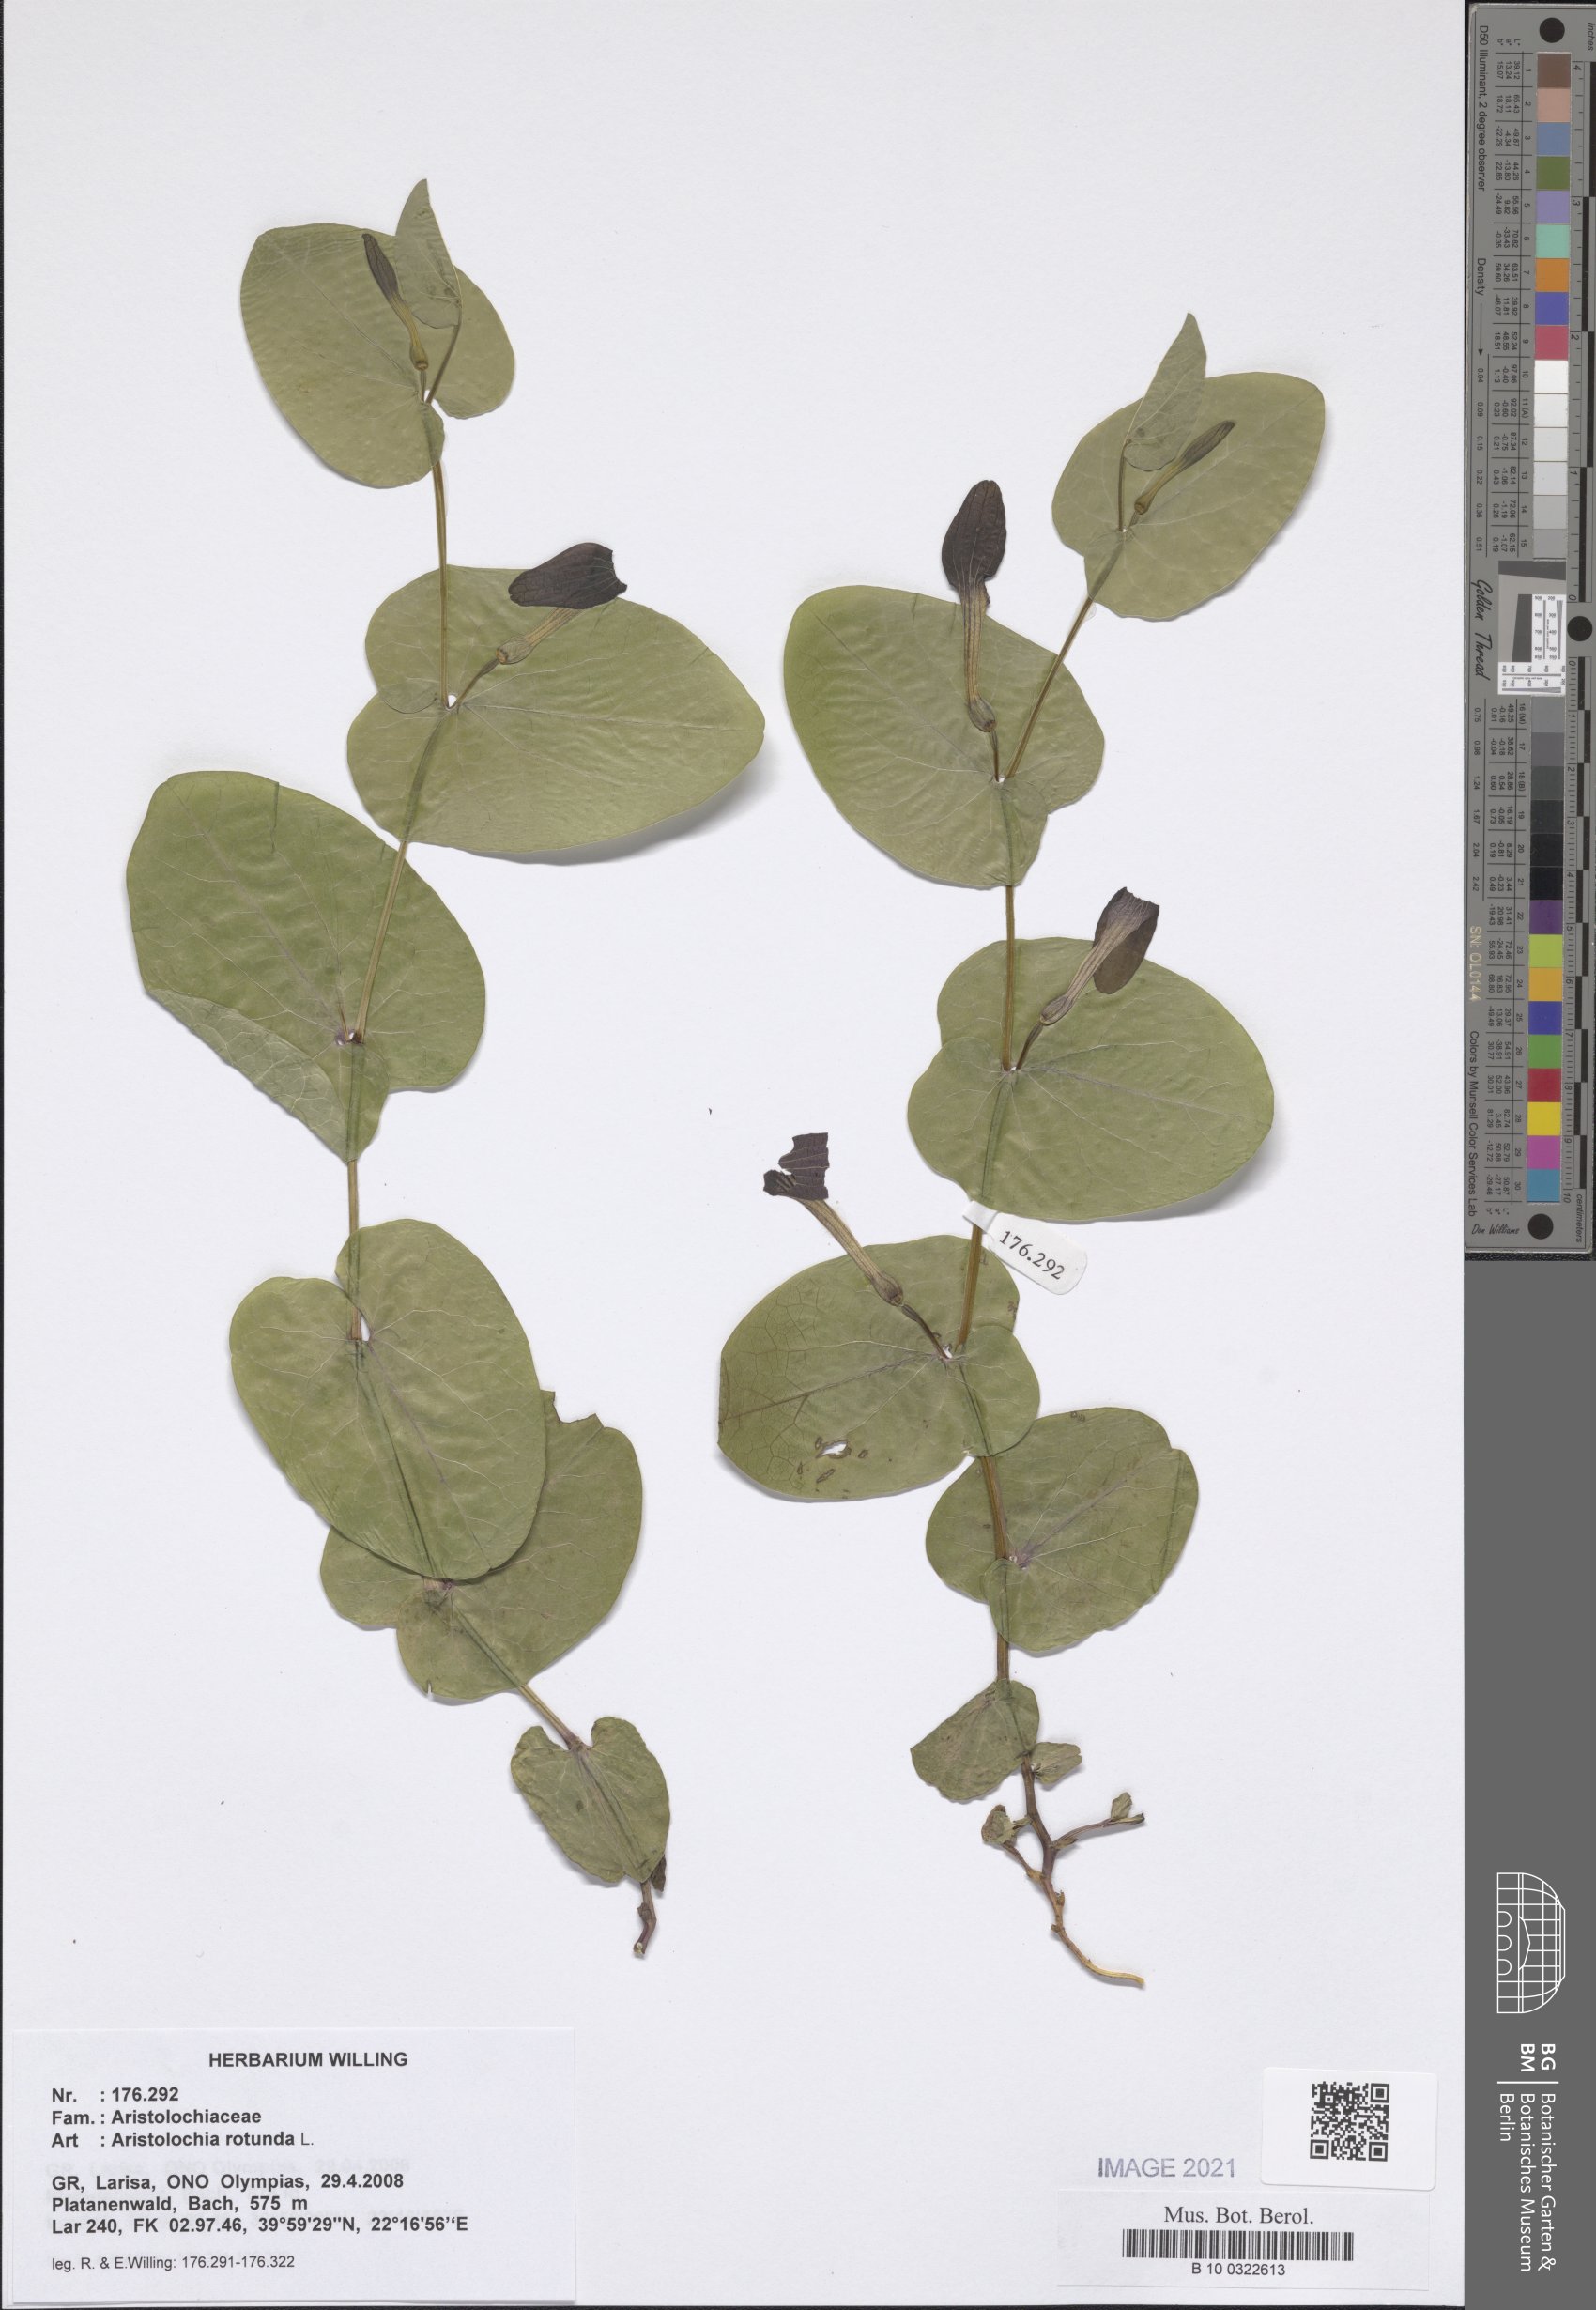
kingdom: Plantae
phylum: Tracheophyta
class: Magnoliopsida
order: Piperales
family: Aristolochiaceae
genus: Aristolochia
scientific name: Aristolochia rotunda
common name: Smearwort
